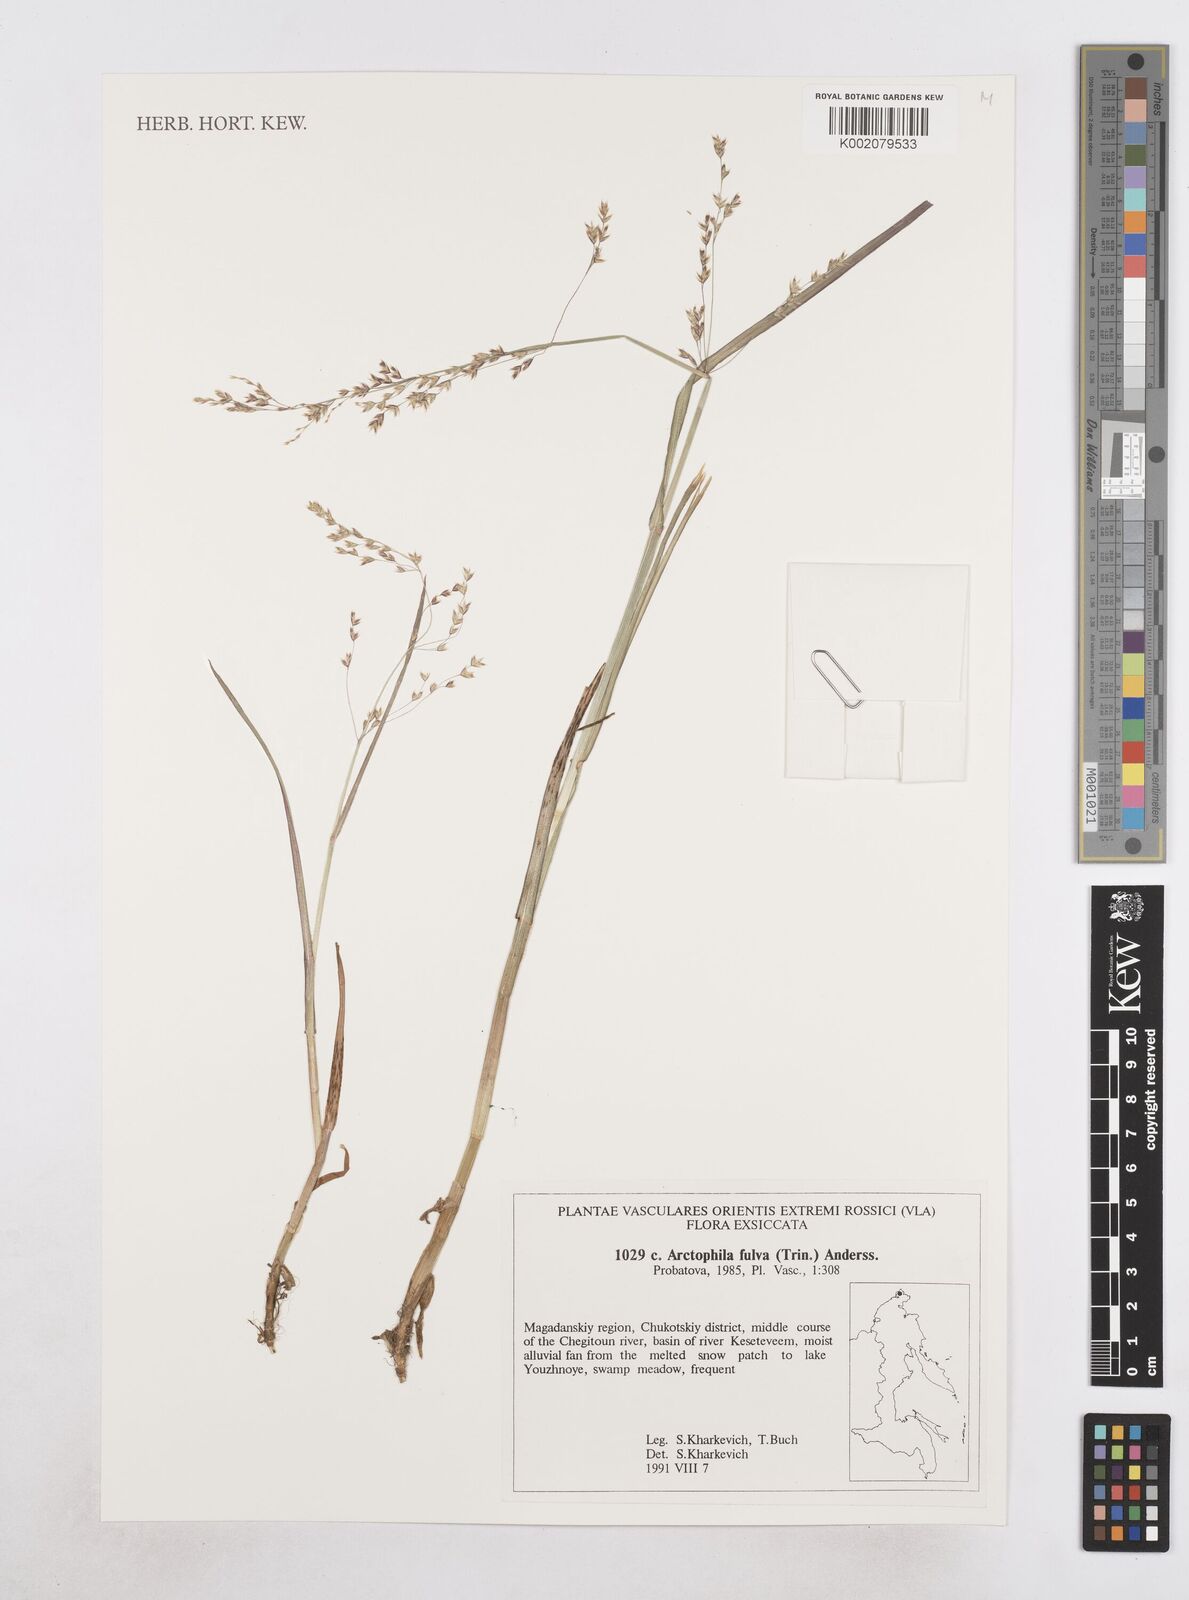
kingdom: Plantae
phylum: Tracheophyta
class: Liliopsida
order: Poales
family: Poaceae
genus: Dupontia
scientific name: Dupontia fulva
